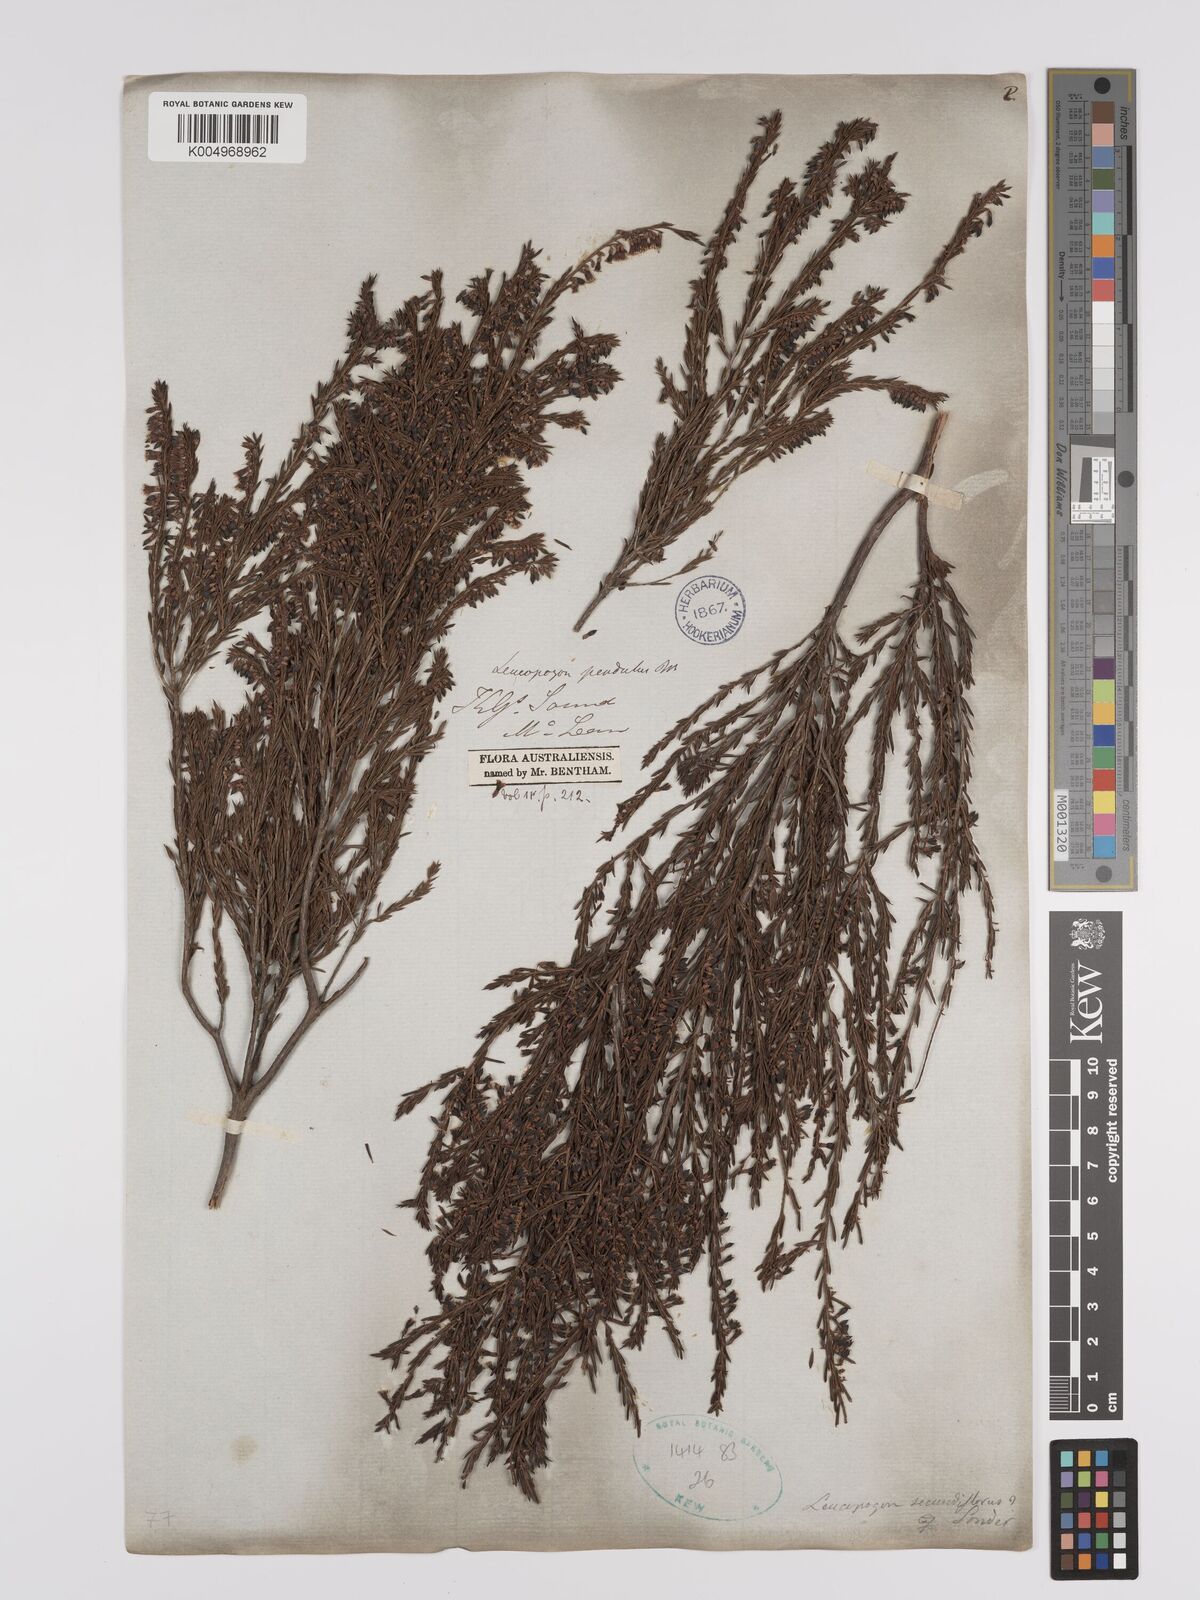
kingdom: Plantae
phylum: Tracheophyta
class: Magnoliopsida
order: Ericales
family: Ericaceae
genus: Styphelia
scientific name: Styphelia pendula
